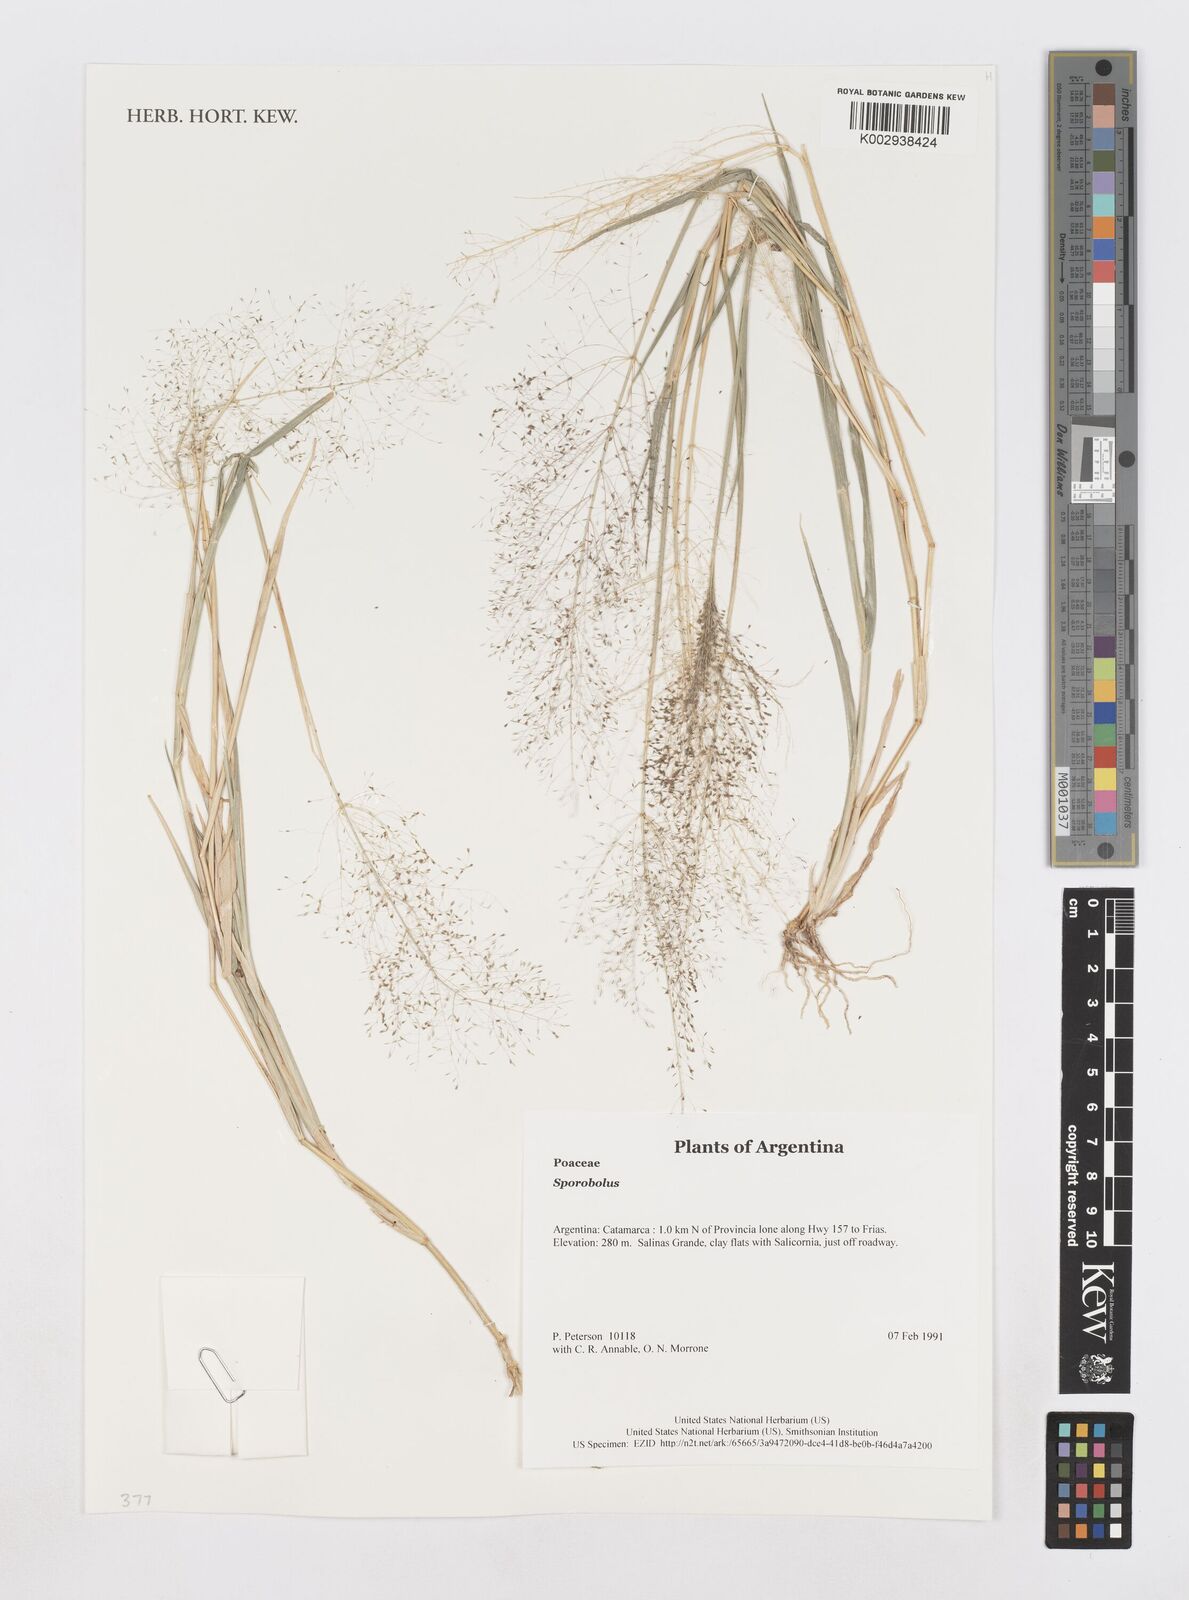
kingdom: Plantae
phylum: Tracheophyta
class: Liliopsida
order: Poales
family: Poaceae
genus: Sporobolus
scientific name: Sporobolus
